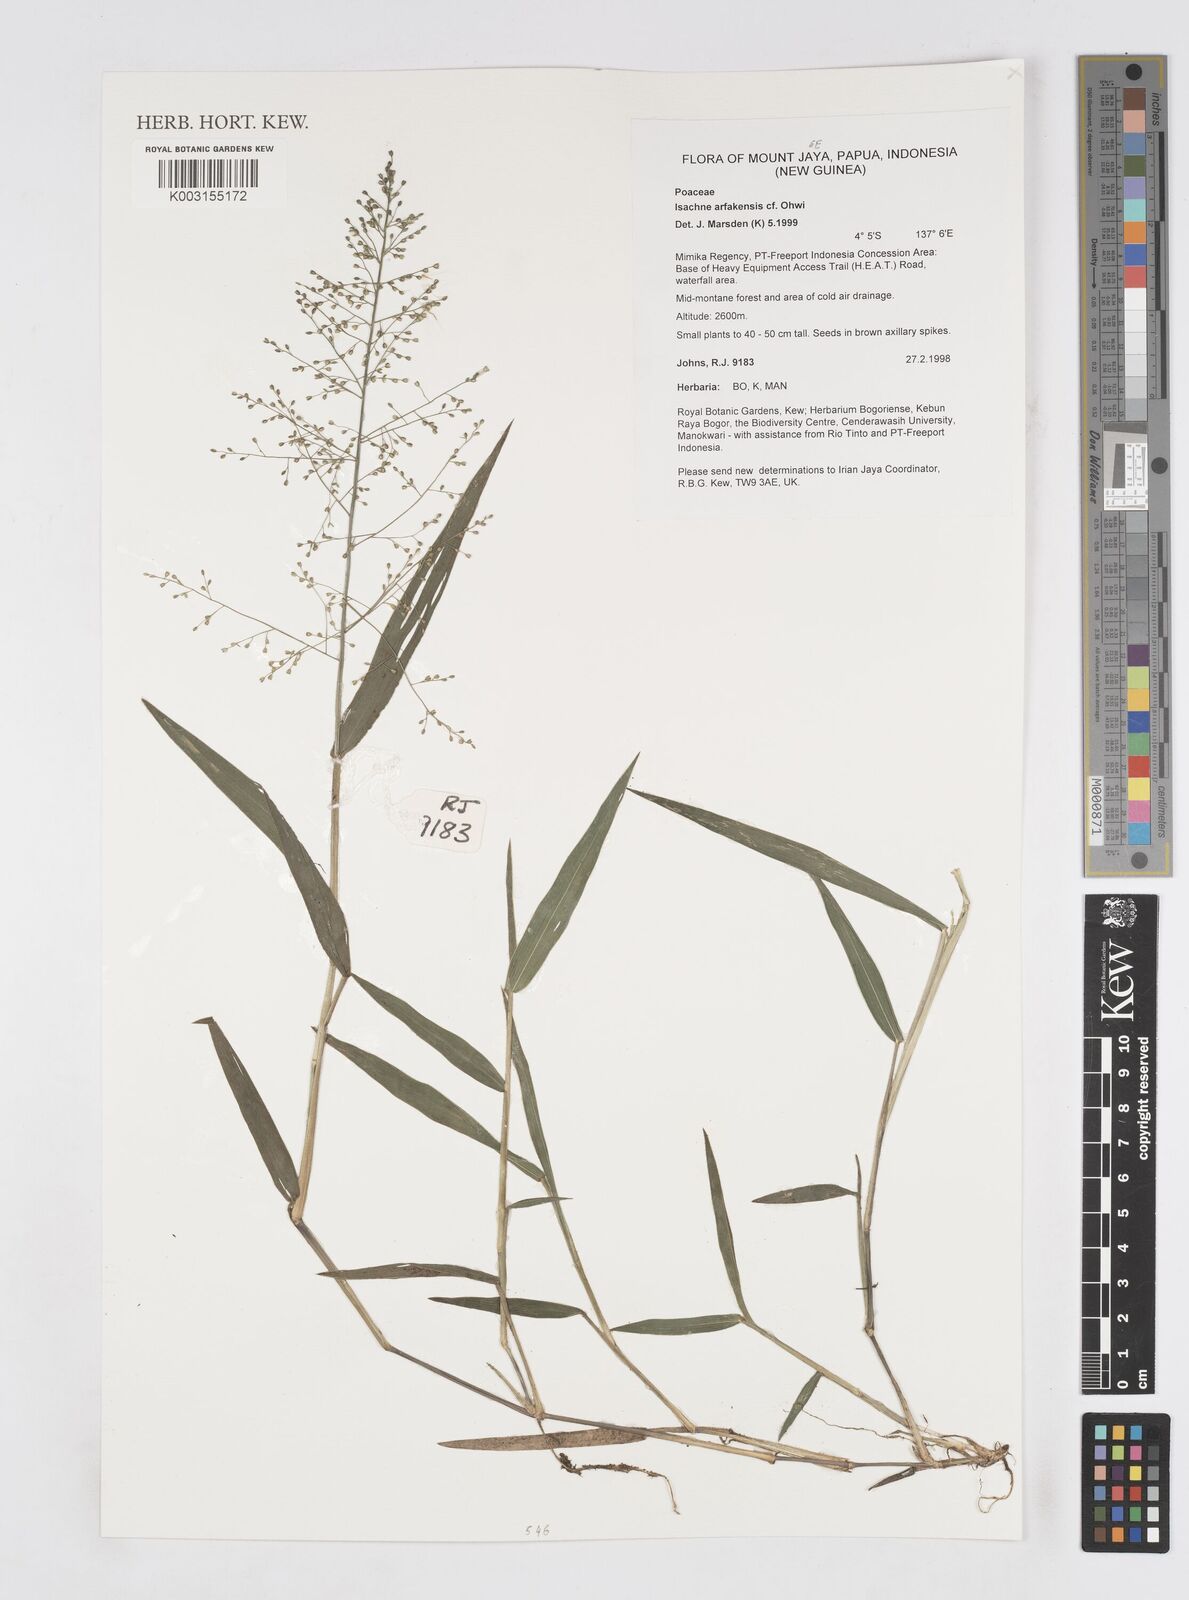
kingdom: Plantae
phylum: Tracheophyta
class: Liliopsida
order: Poales
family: Poaceae
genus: Isachne
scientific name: Isachne arfakensis
